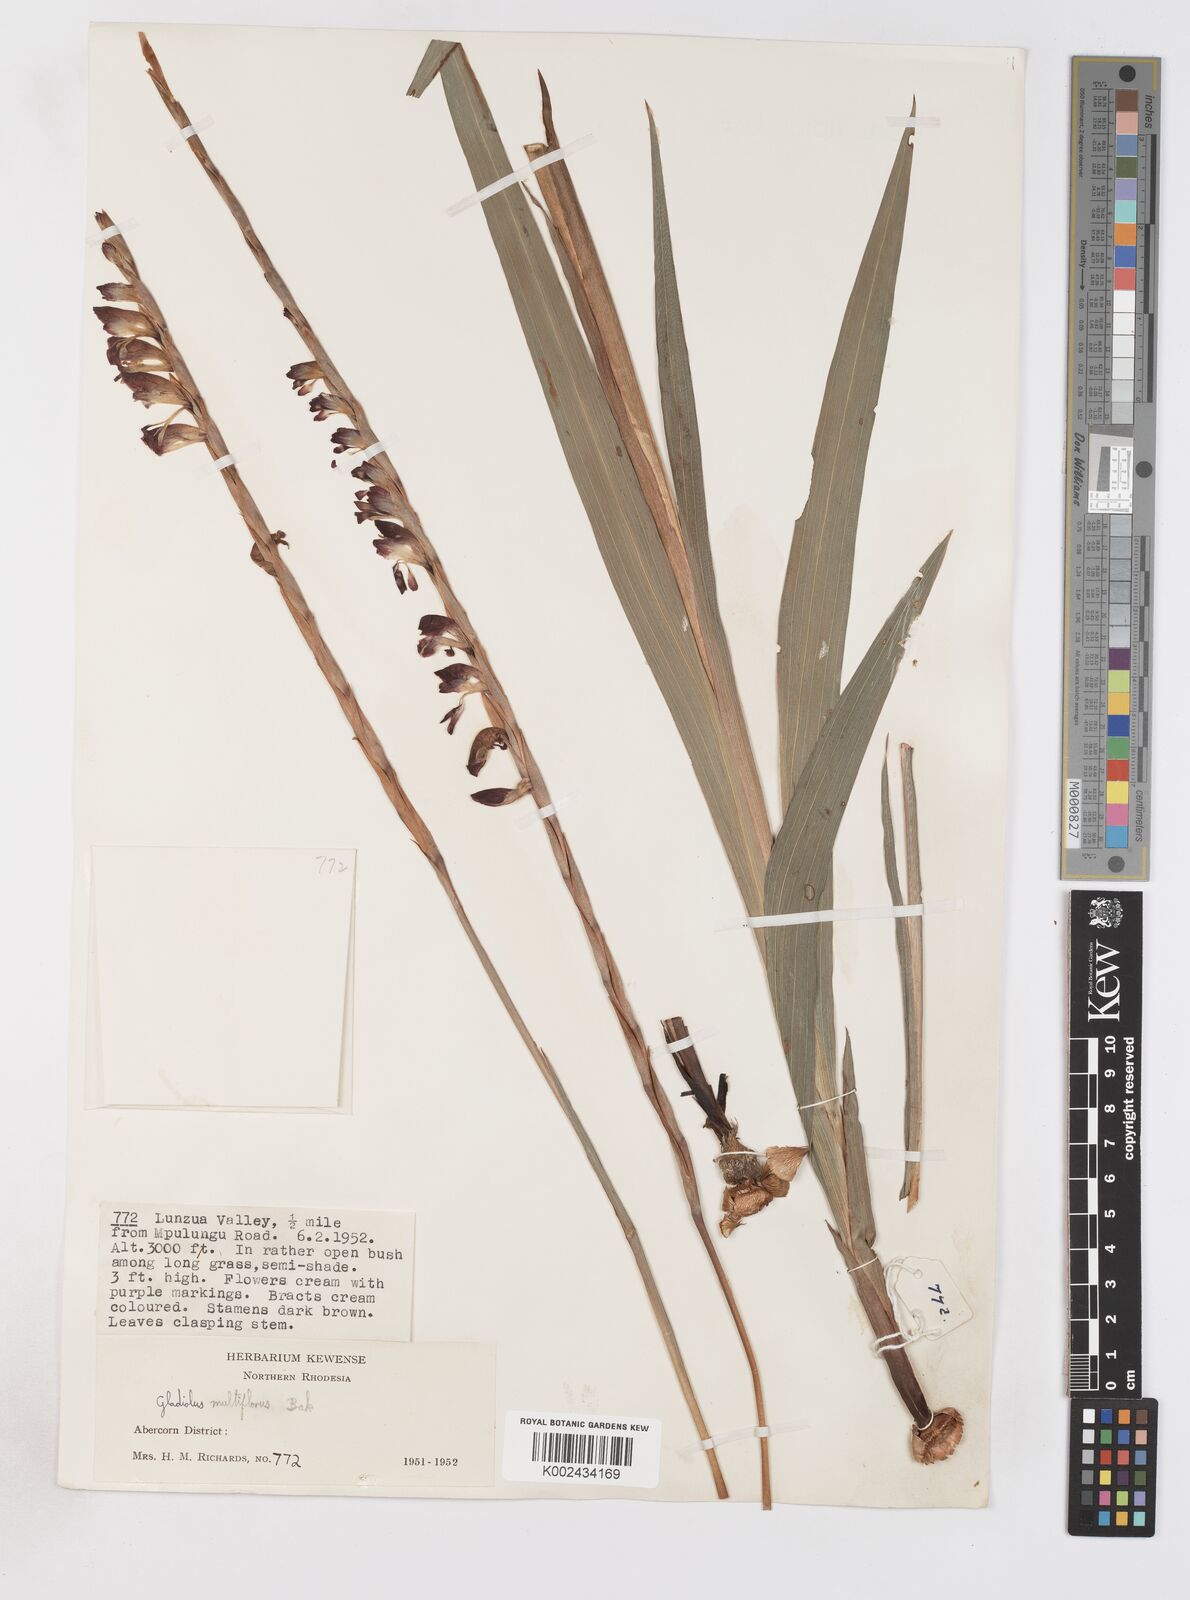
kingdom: Plantae
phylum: Tracheophyta
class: Liliopsida
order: Asparagales
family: Iridaceae
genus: Gladiolus
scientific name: Gladiolus gregarius
